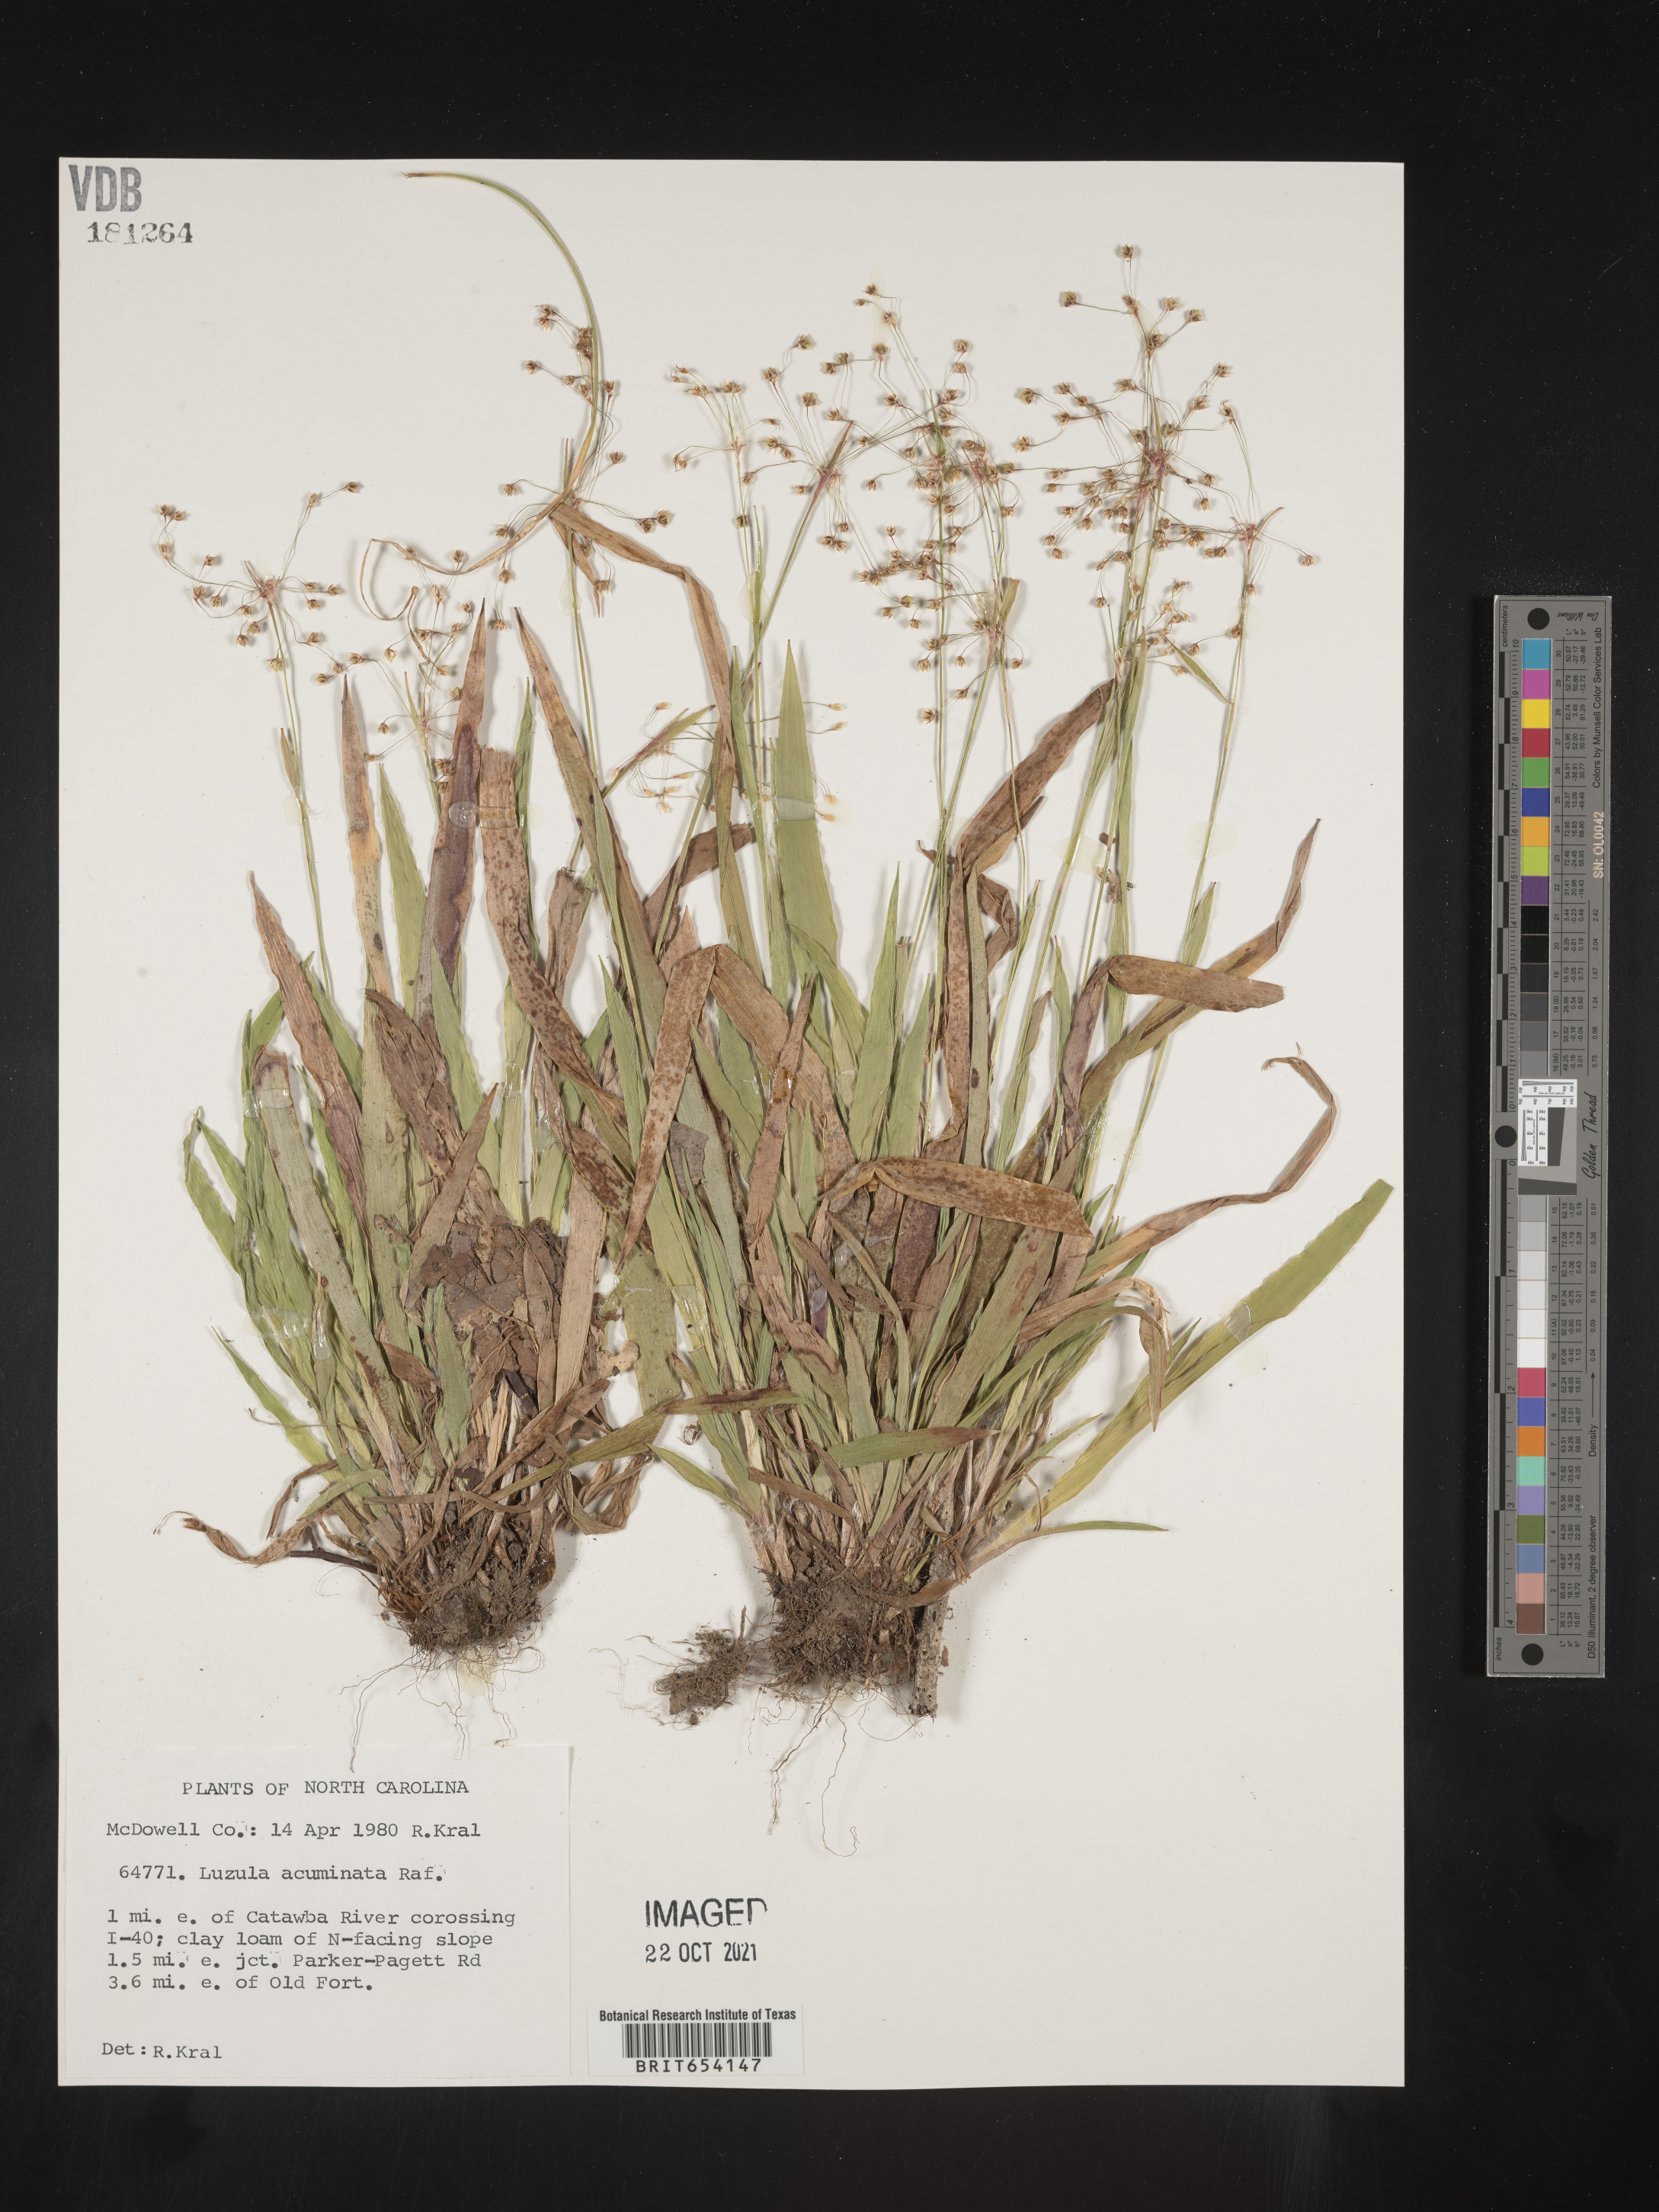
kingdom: Plantae
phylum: Tracheophyta
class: Liliopsida
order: Poales
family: Juncaceae
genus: Luzula
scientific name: Luzula acuminata
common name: Hairy woodrush
